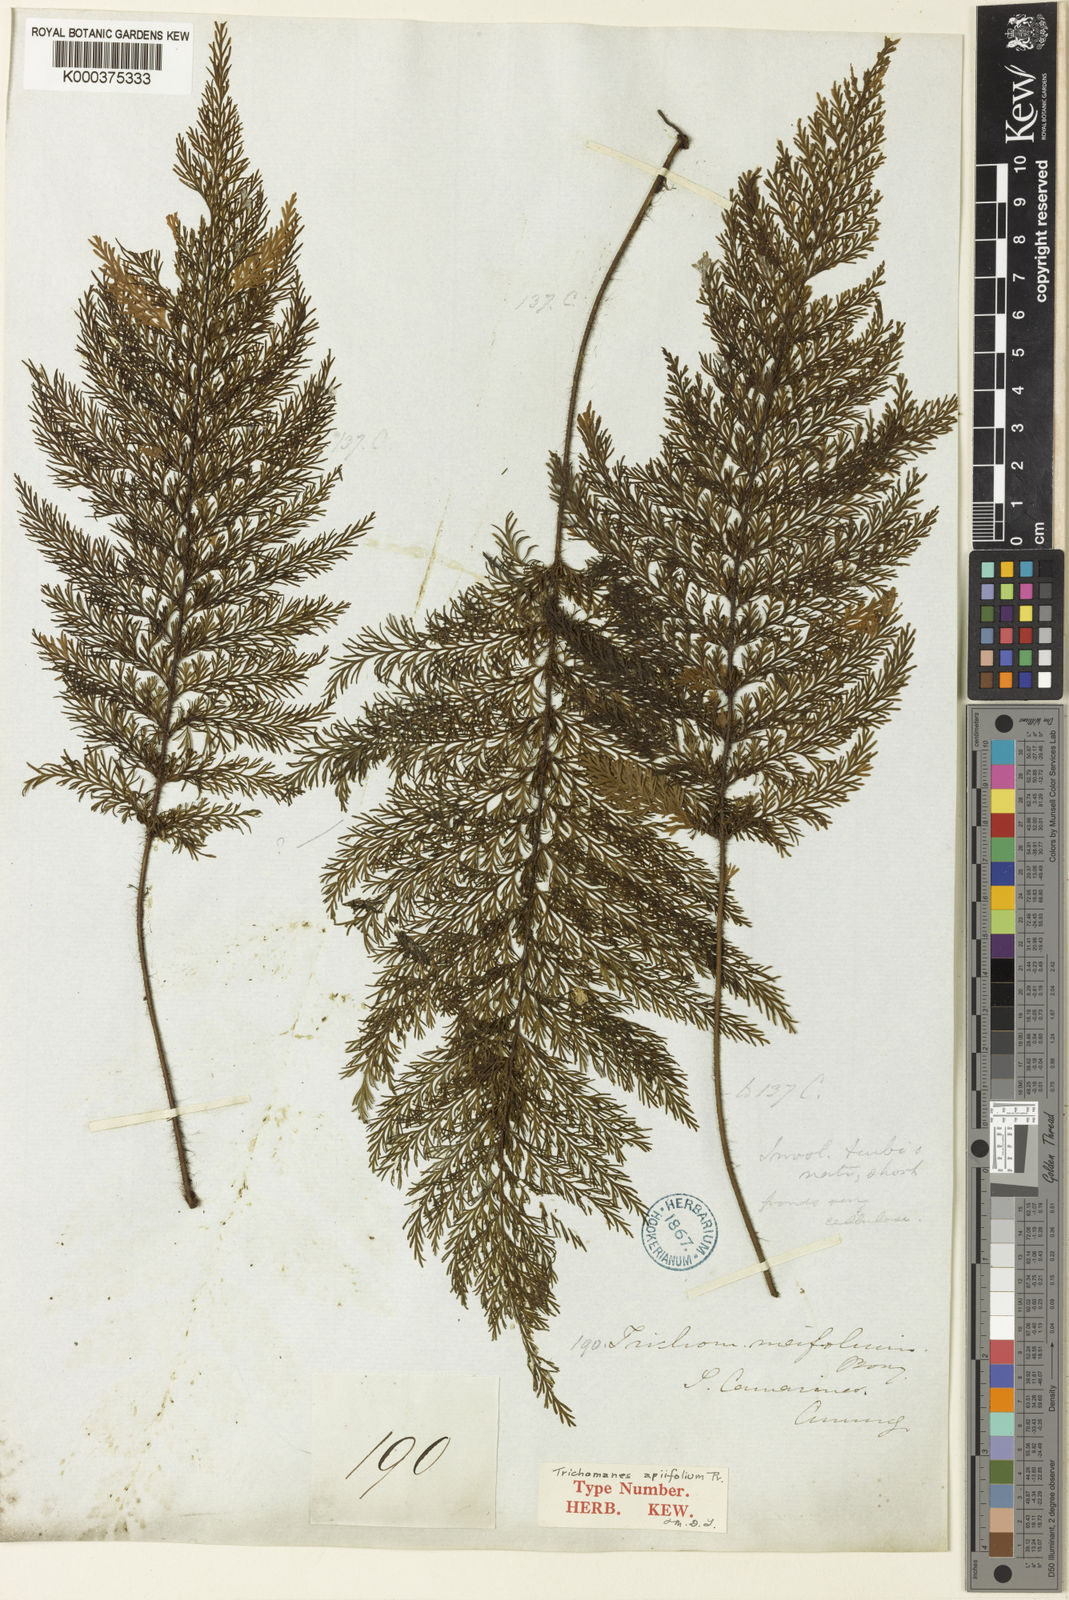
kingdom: Plantae
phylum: Tracheophyta
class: Polypodiopsida
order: Hymenophyllales
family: Hymenophyllaceae
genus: Callistopteris
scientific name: Callistopteris apiifolia
